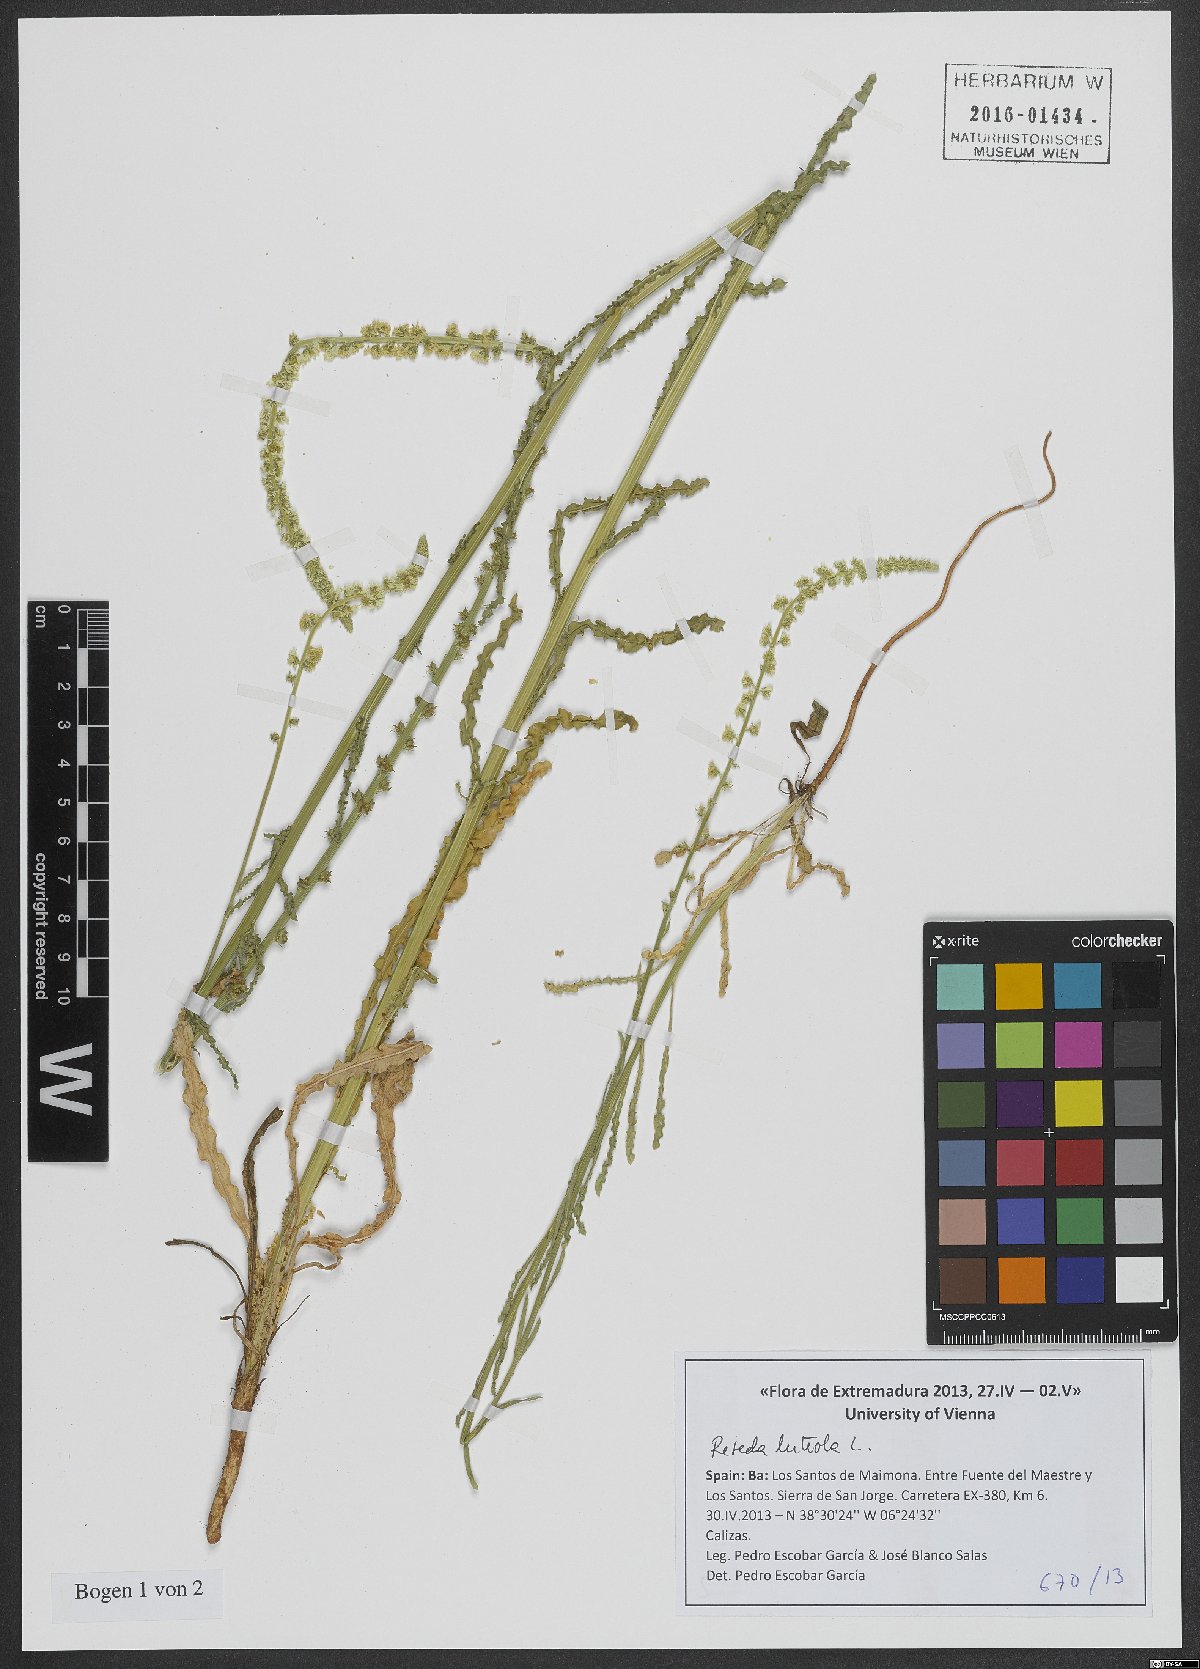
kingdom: Plantae
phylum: Tracheophyta
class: Magnoliopsida
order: Brassicales
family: Resedaceae
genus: Reseda
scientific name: Reseda luteola
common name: Weld
